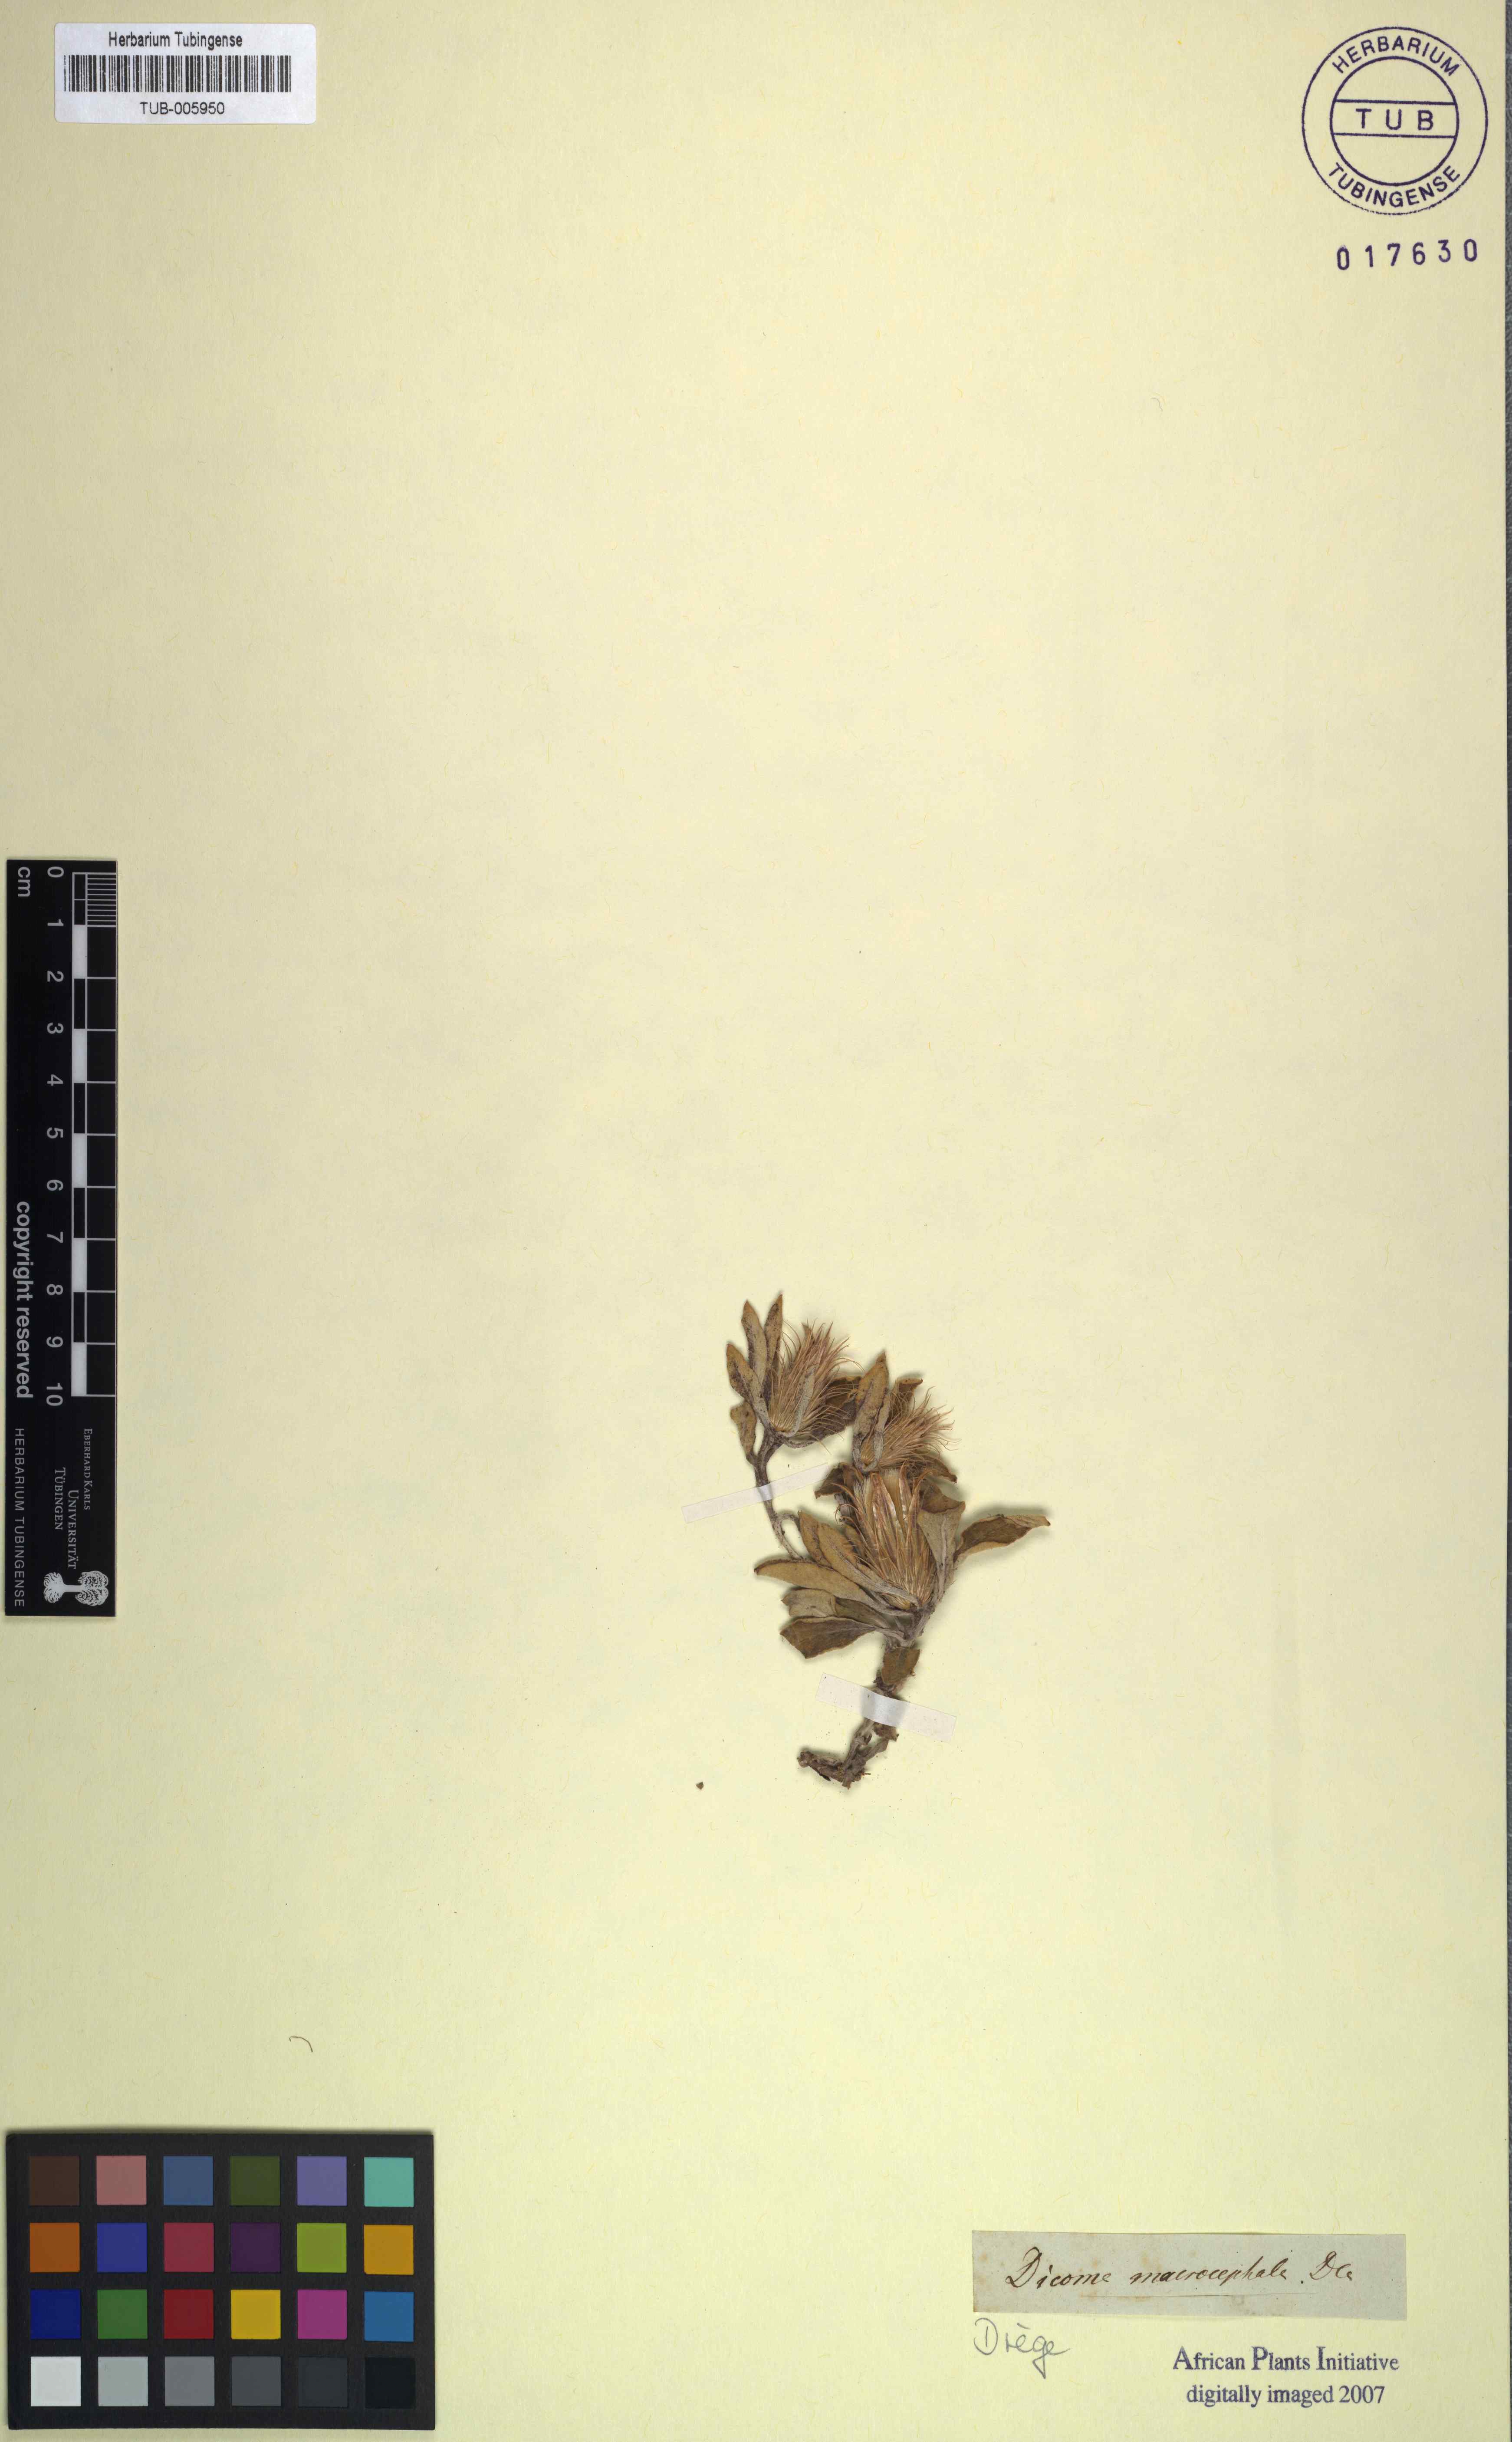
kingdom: Plantae
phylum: Tracheophyta
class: Magnoliopsida
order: Asterales
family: Asteraceae
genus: Dicoma
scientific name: Dicoma macrocephala
